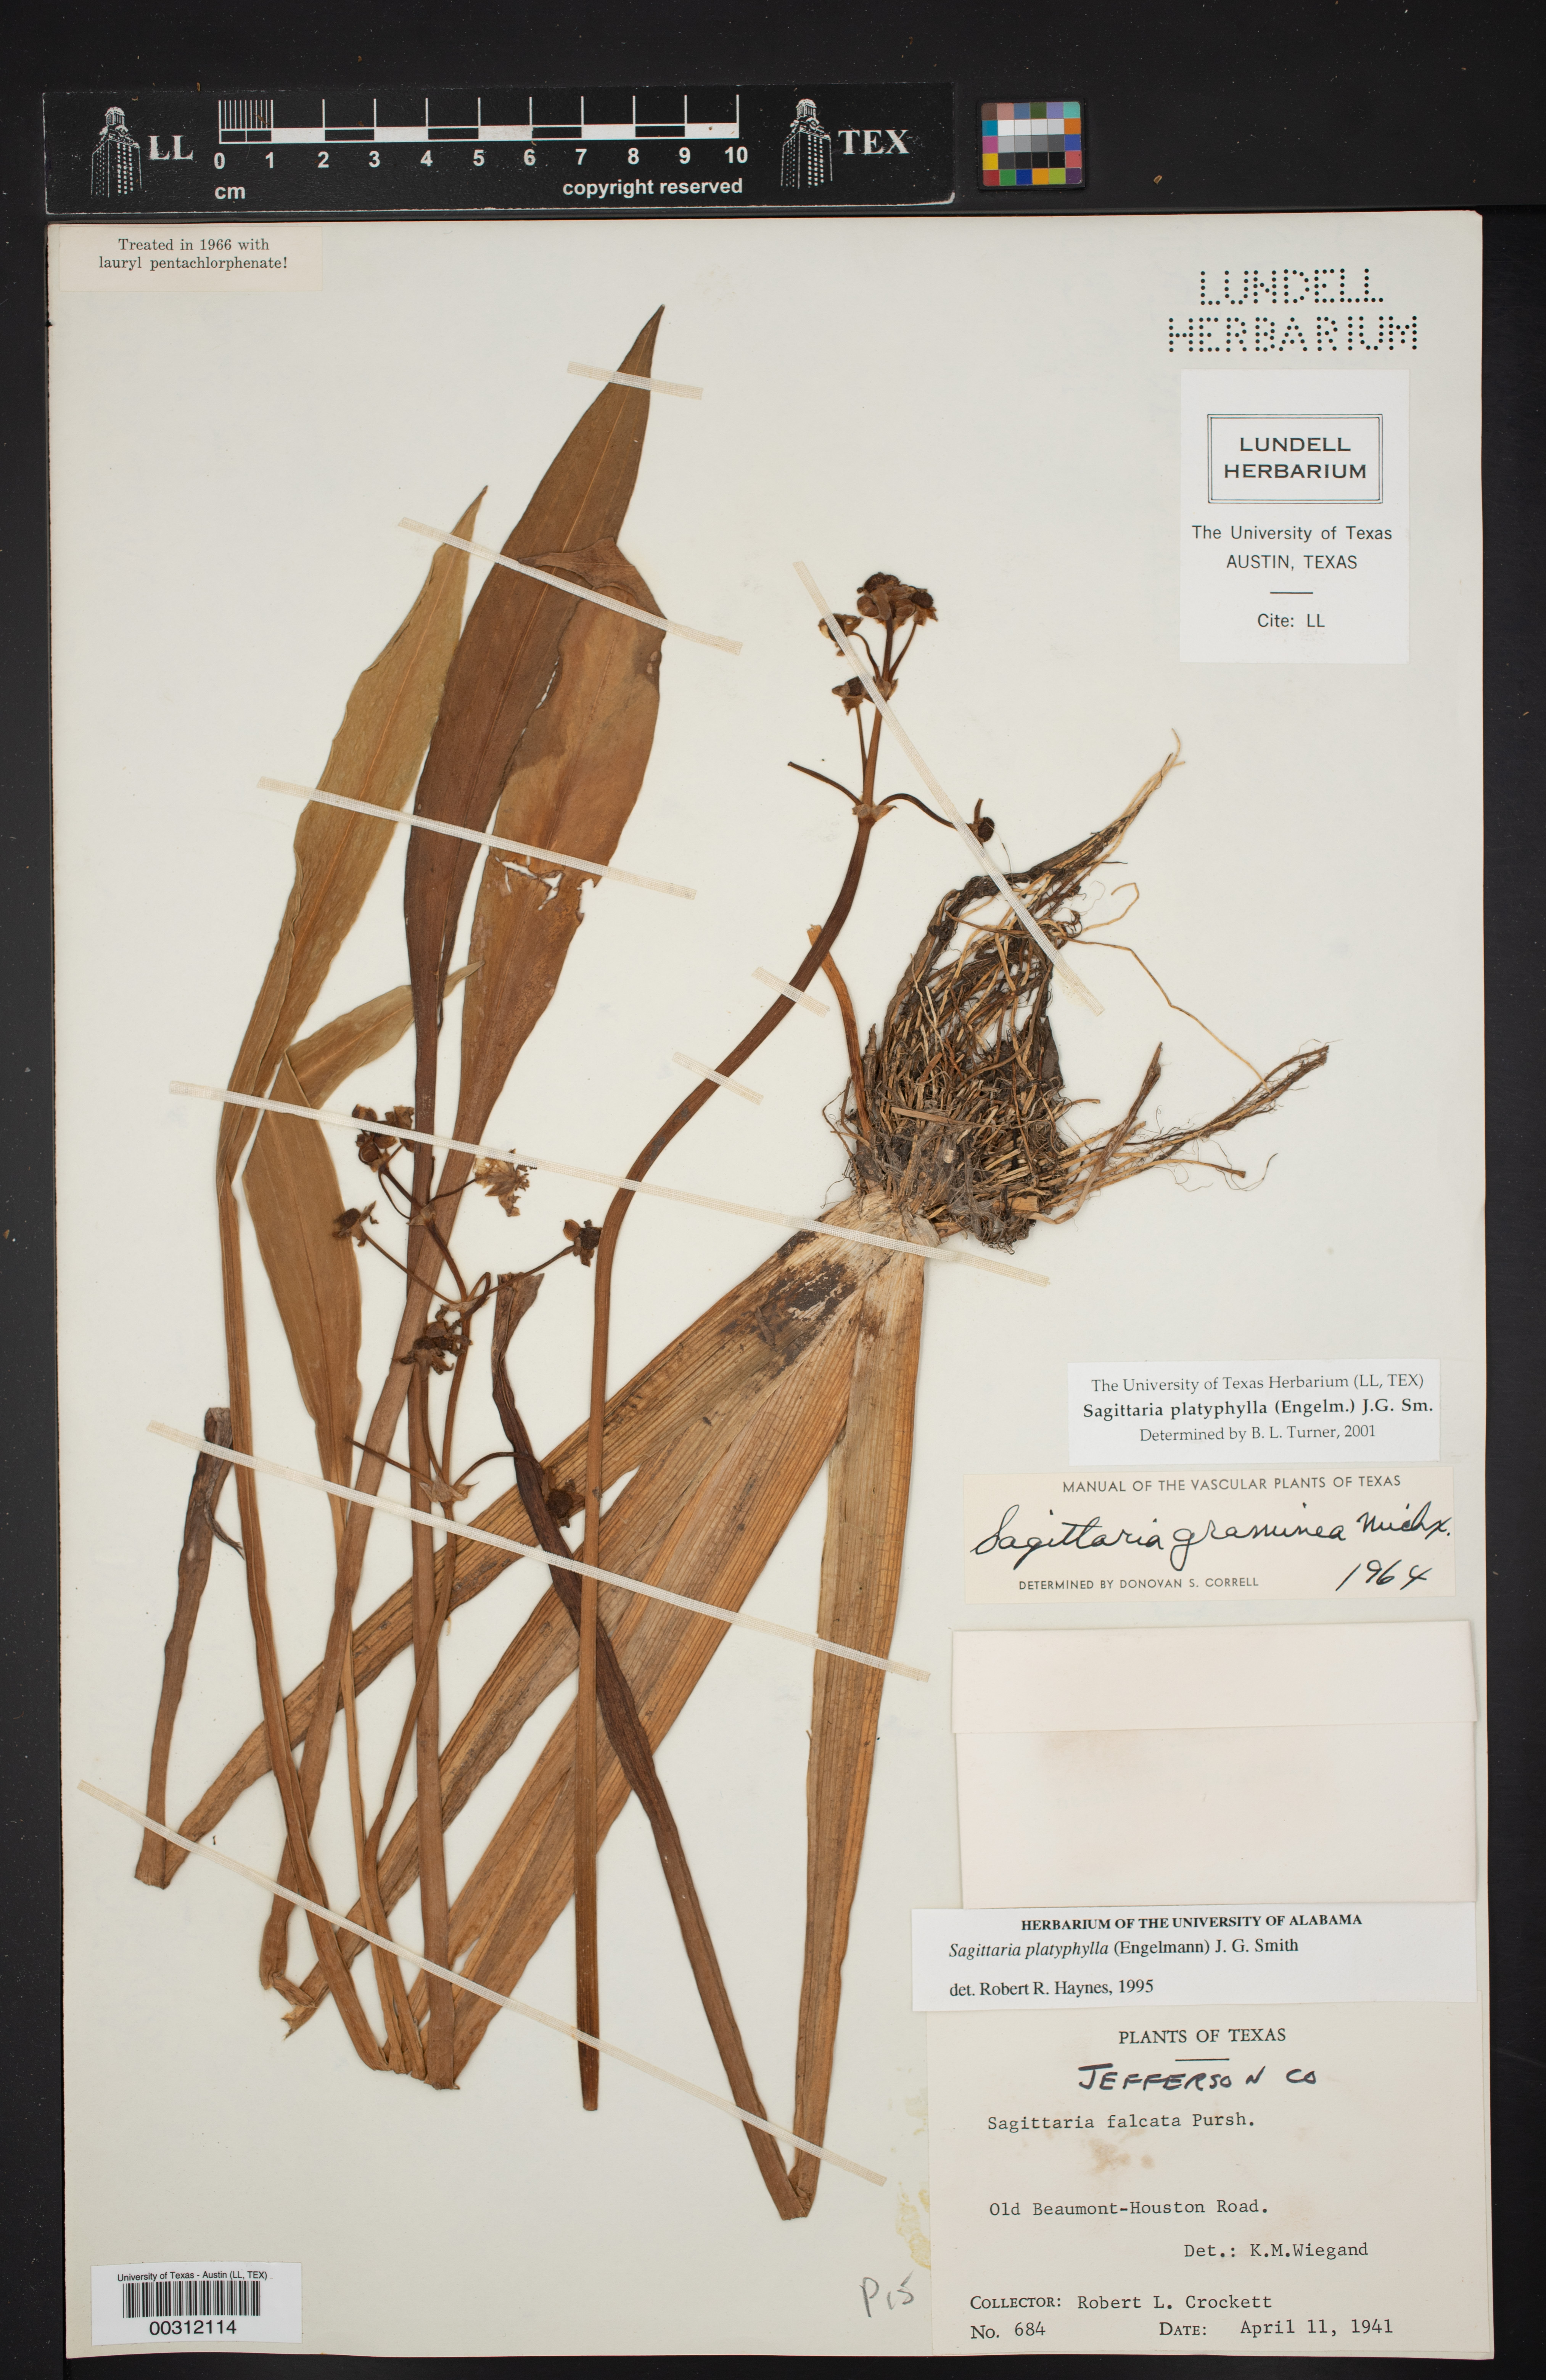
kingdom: Plantae
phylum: Tracheophyta
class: Liliopsida
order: Alismatales
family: Alismataceae
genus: Sagittaria
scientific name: Sagittaria platyphylla
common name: Broad-leaf arrowhead
